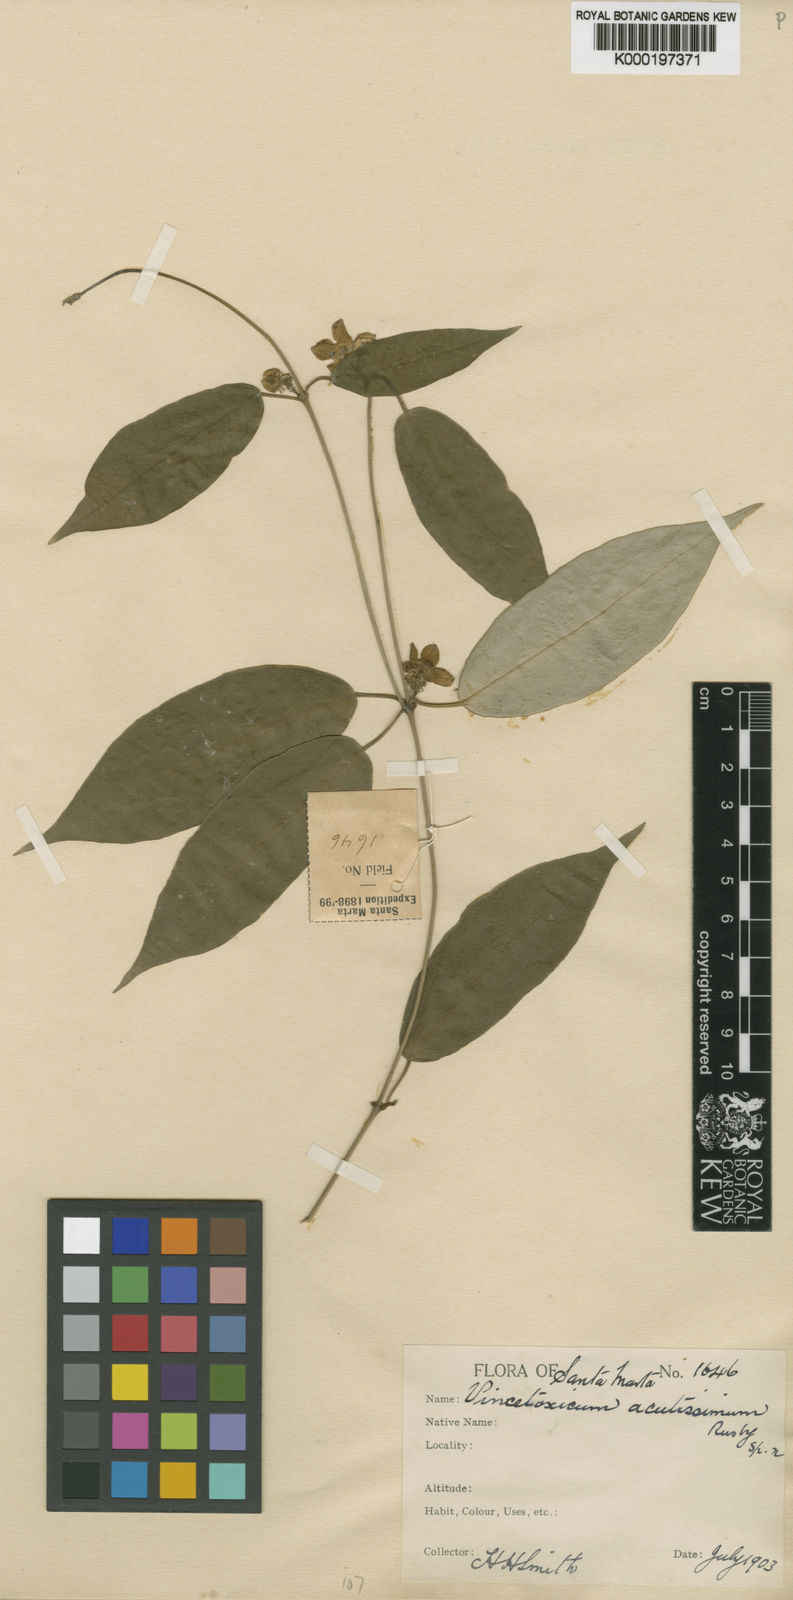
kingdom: Plantae
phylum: Tracheophyta
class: Magnoliopsida
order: Gentianales
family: Apocynaceae
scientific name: Apocynaceae
